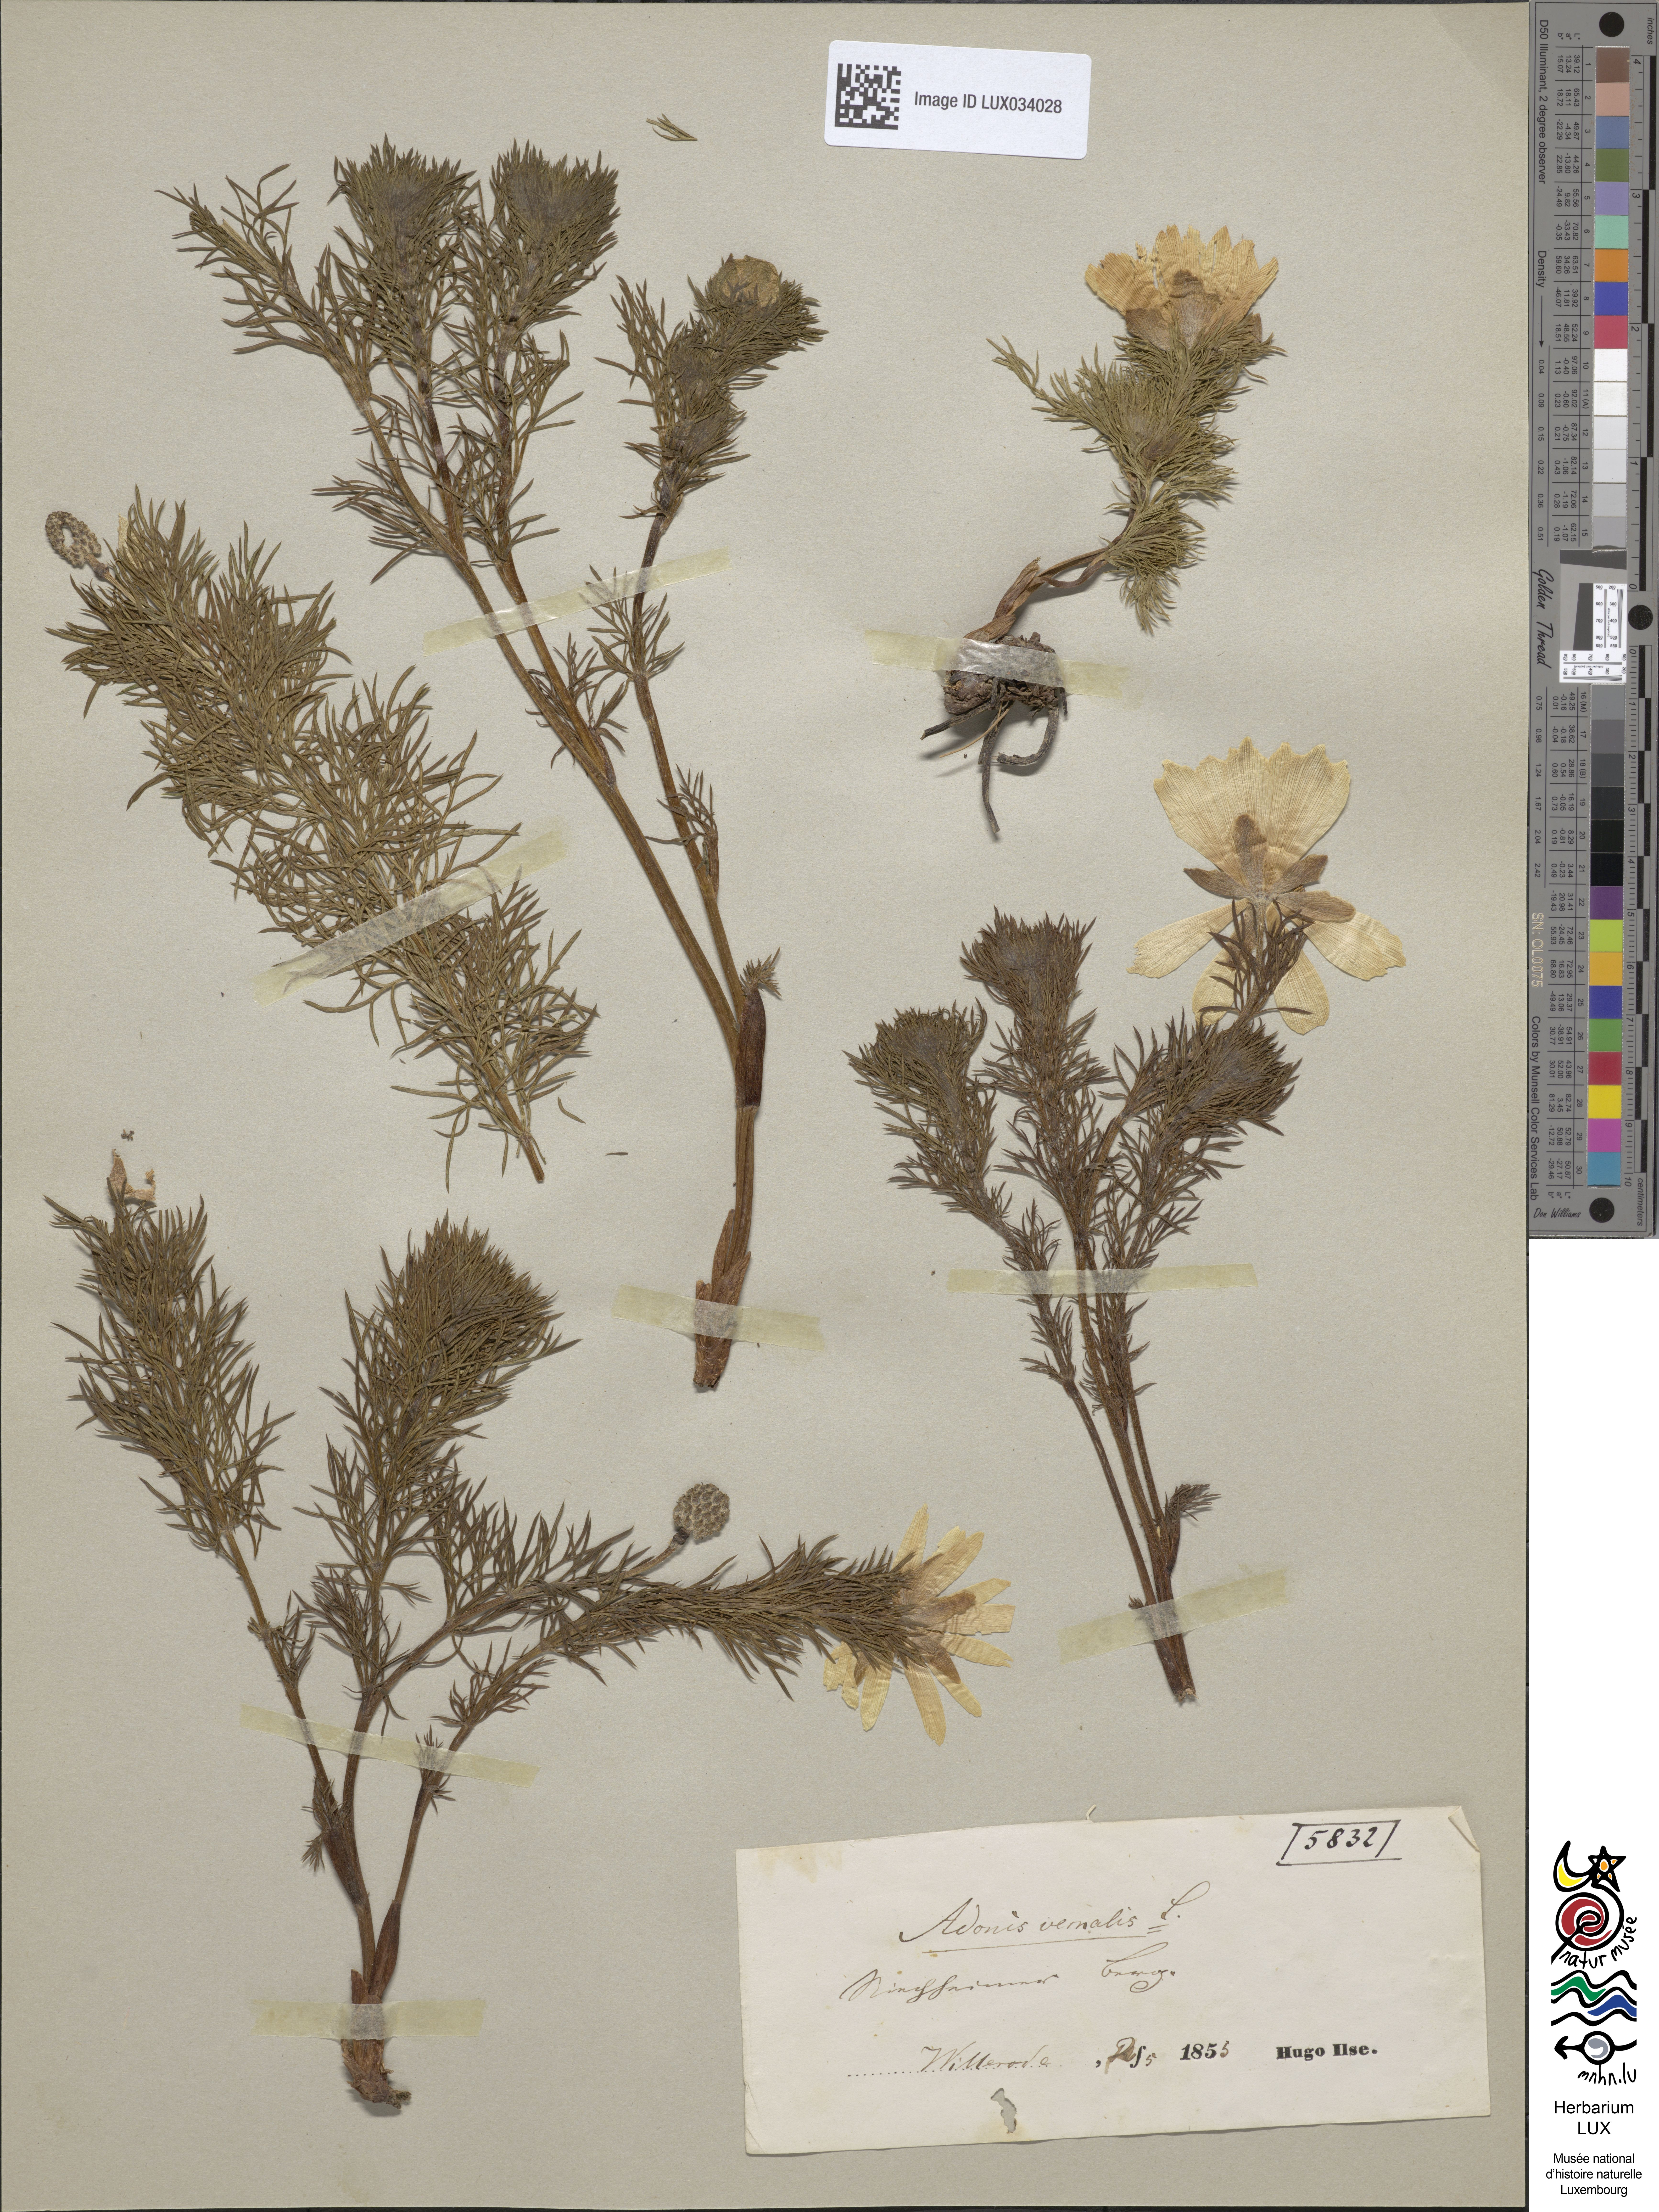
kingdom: Plantae
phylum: Tracheophyta
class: Magnoliopsida
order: Ranunculales
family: Ranunculaceae
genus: Adonis
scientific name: Adonis vernalis
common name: Yellow pheasants-eye
